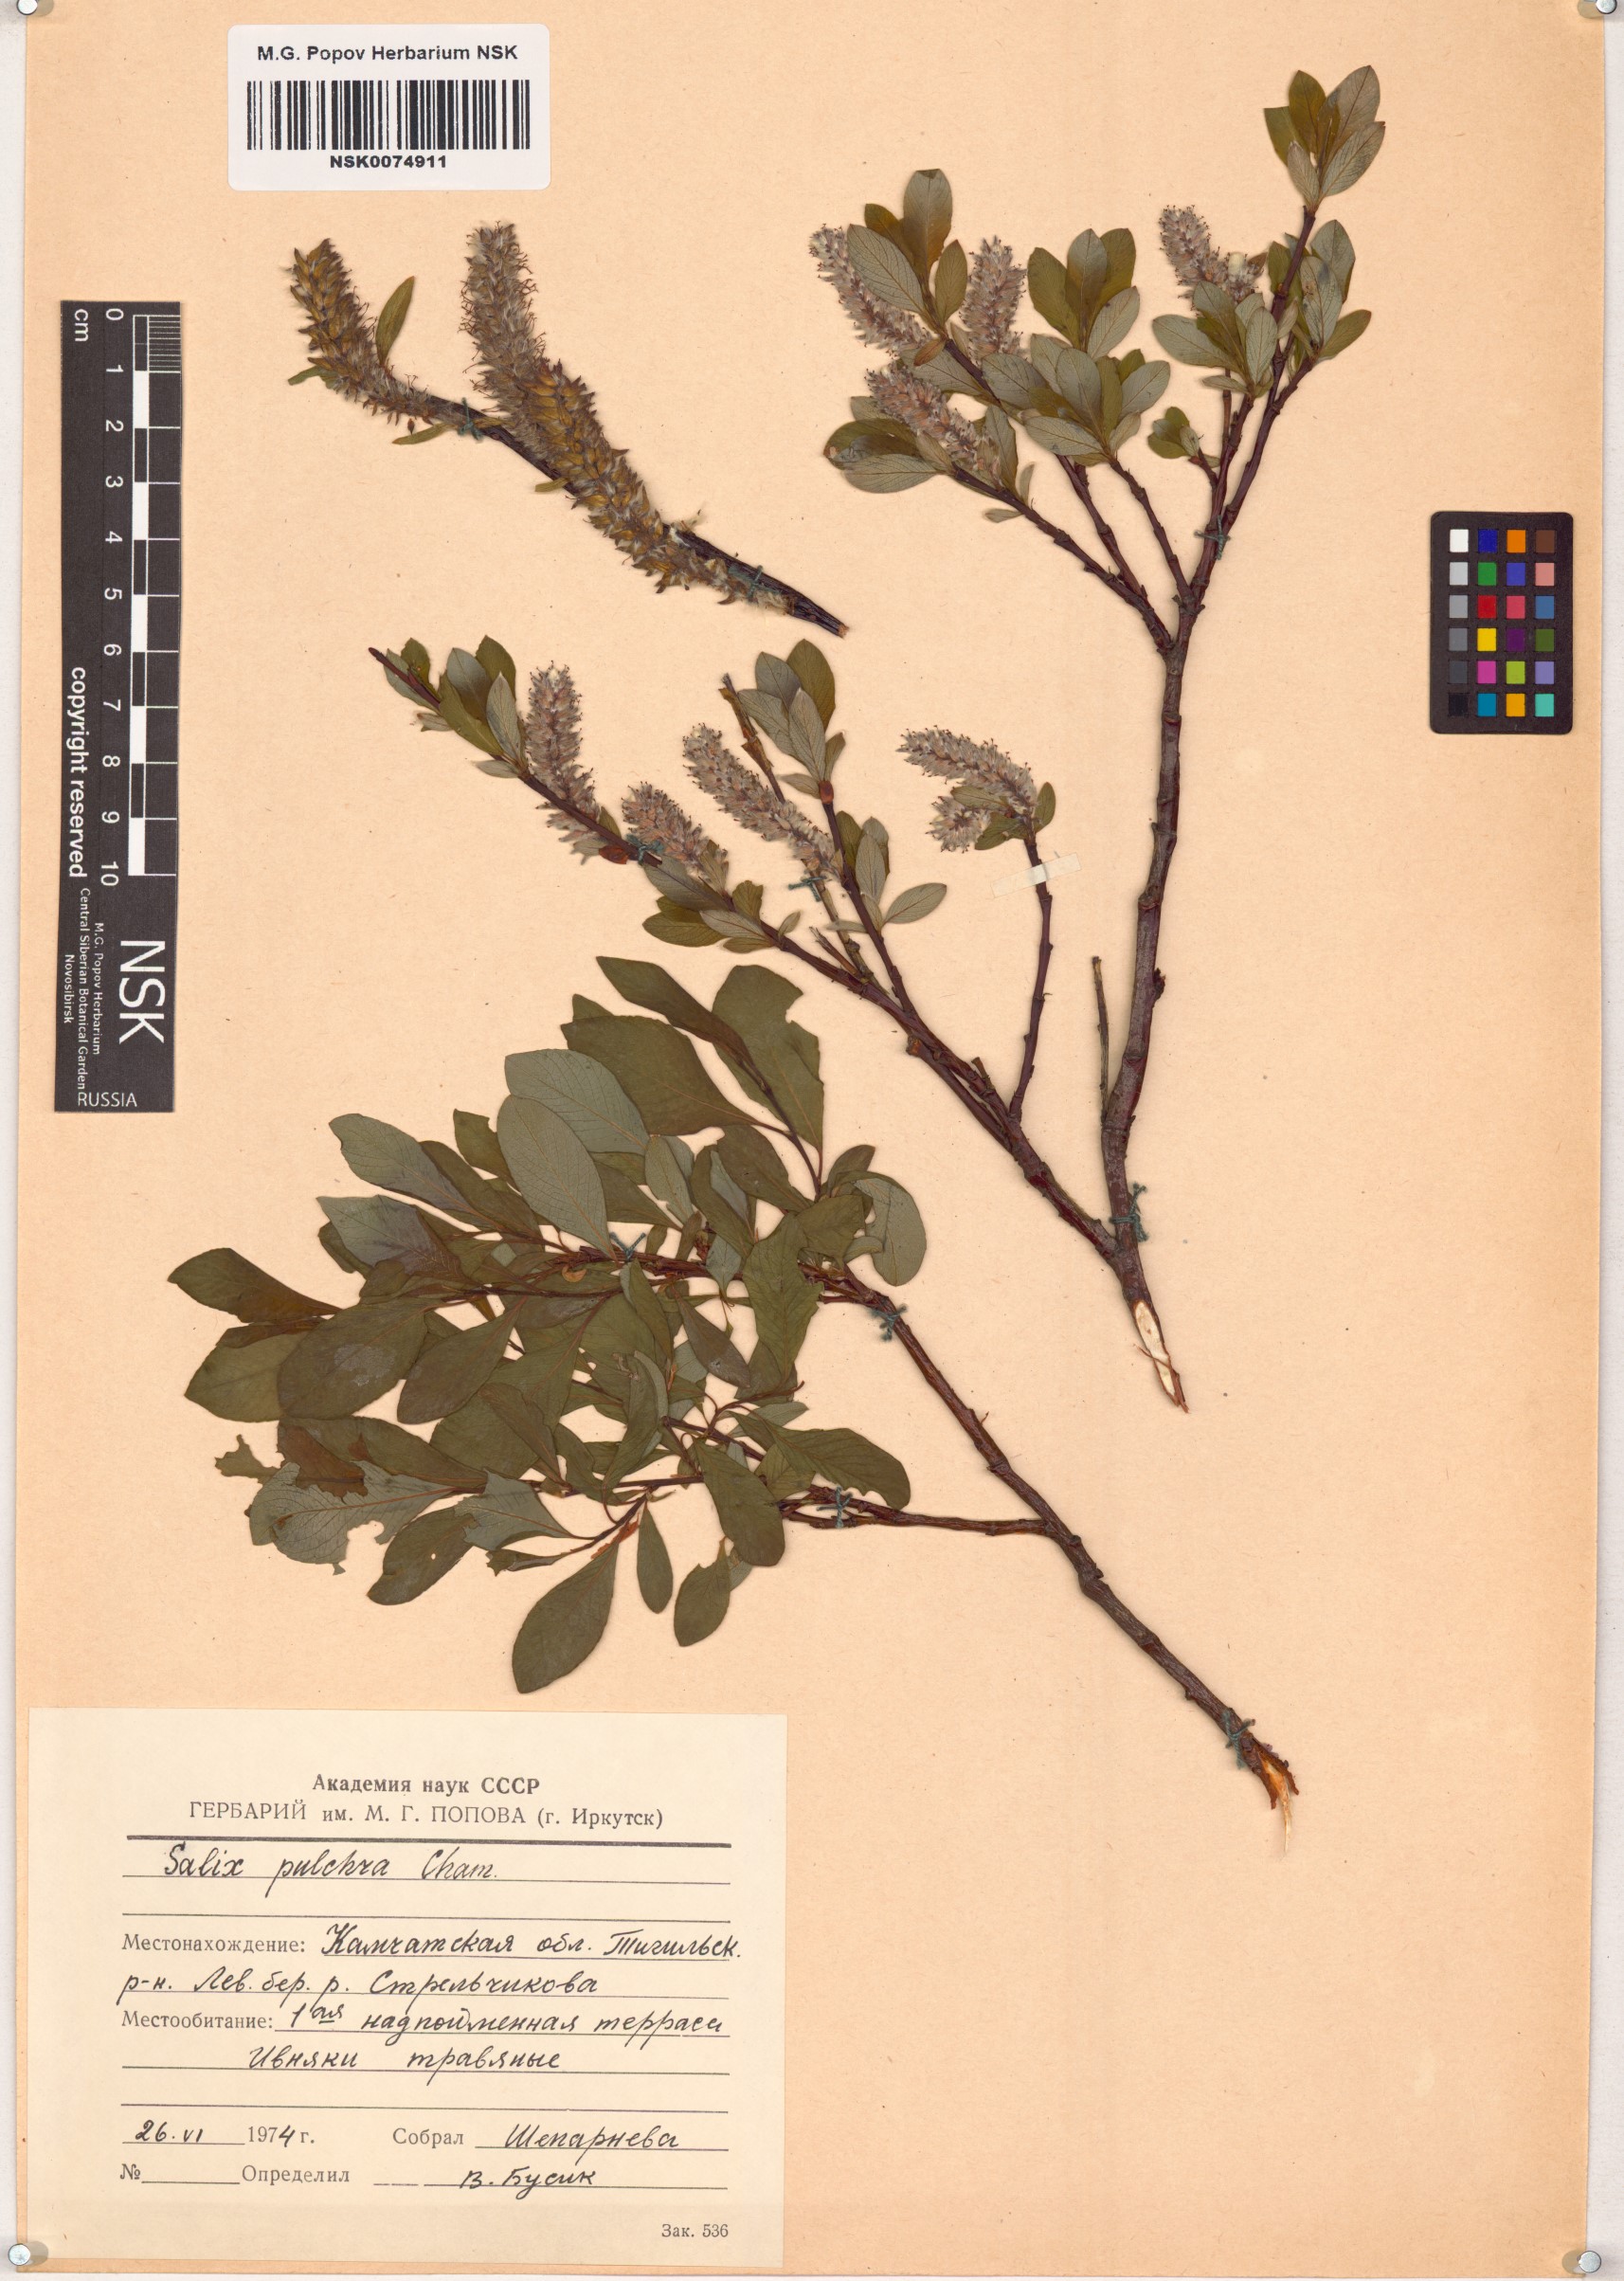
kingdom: Plantae
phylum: Tracheophyta
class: Magnoliopsida
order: Malpighiales
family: Salicaceae
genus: Salix
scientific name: Salix pulchra
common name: Diamond-leaved willow
